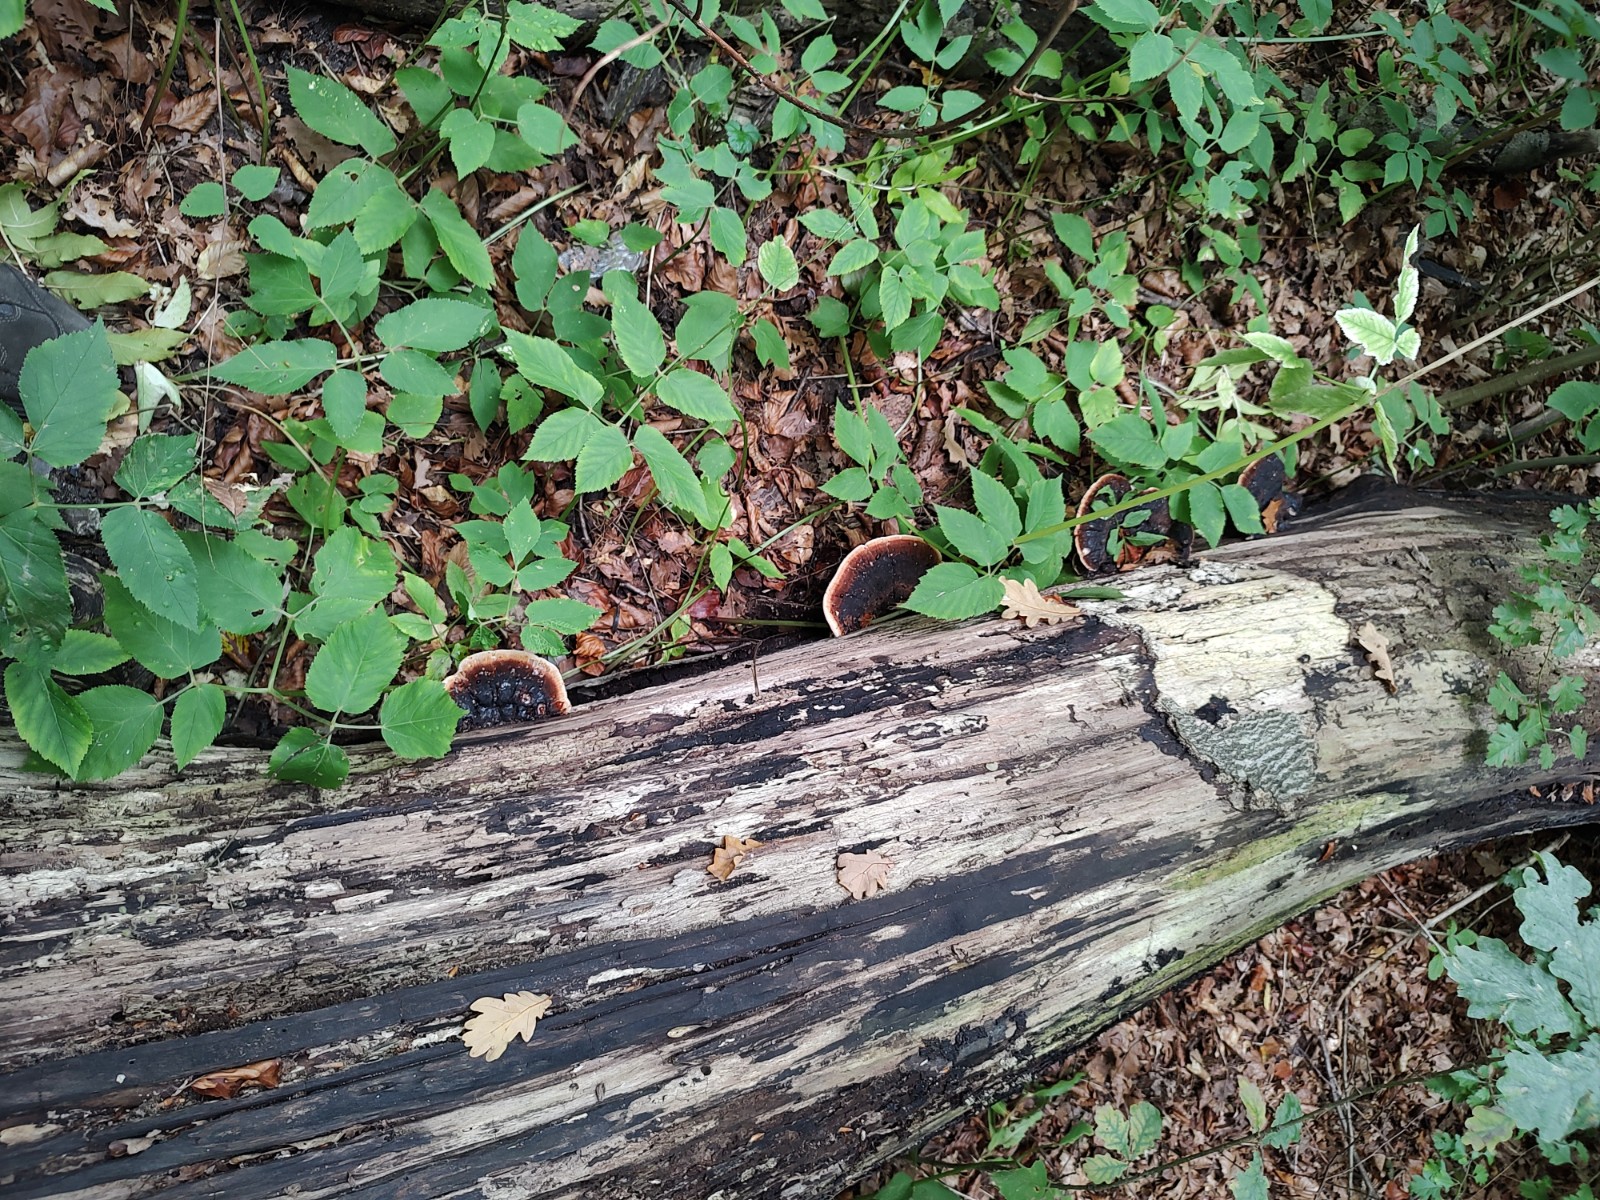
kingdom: Fungi
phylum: Basidiomycota
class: Agaricomycetes
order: Polyporales
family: Ischnodermataceae
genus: Ischnoderma
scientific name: Ischnoderma resinosum
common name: løv-tjæreporesvamp
